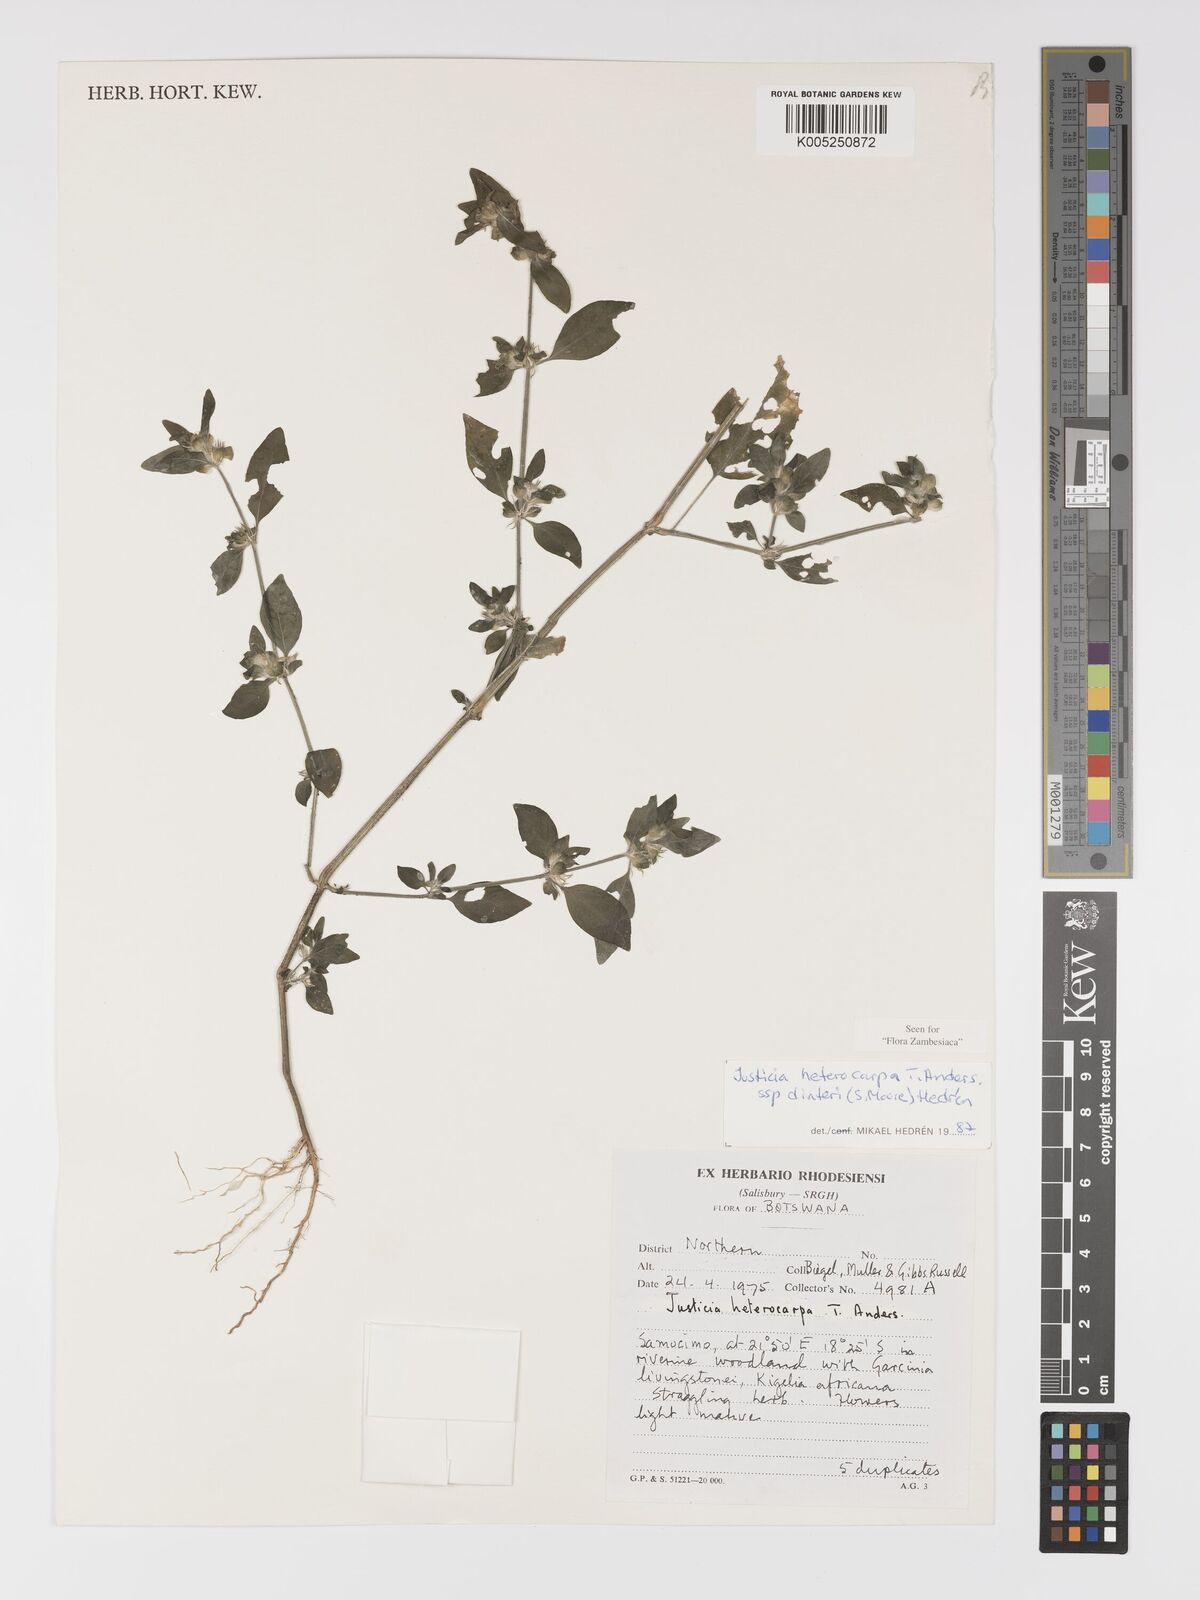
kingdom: Plantae
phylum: Tracheophyta
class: Magnoliopsida
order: Lamiales
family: Acanthaceae
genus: Justicia
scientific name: Justicia heterocarpa
